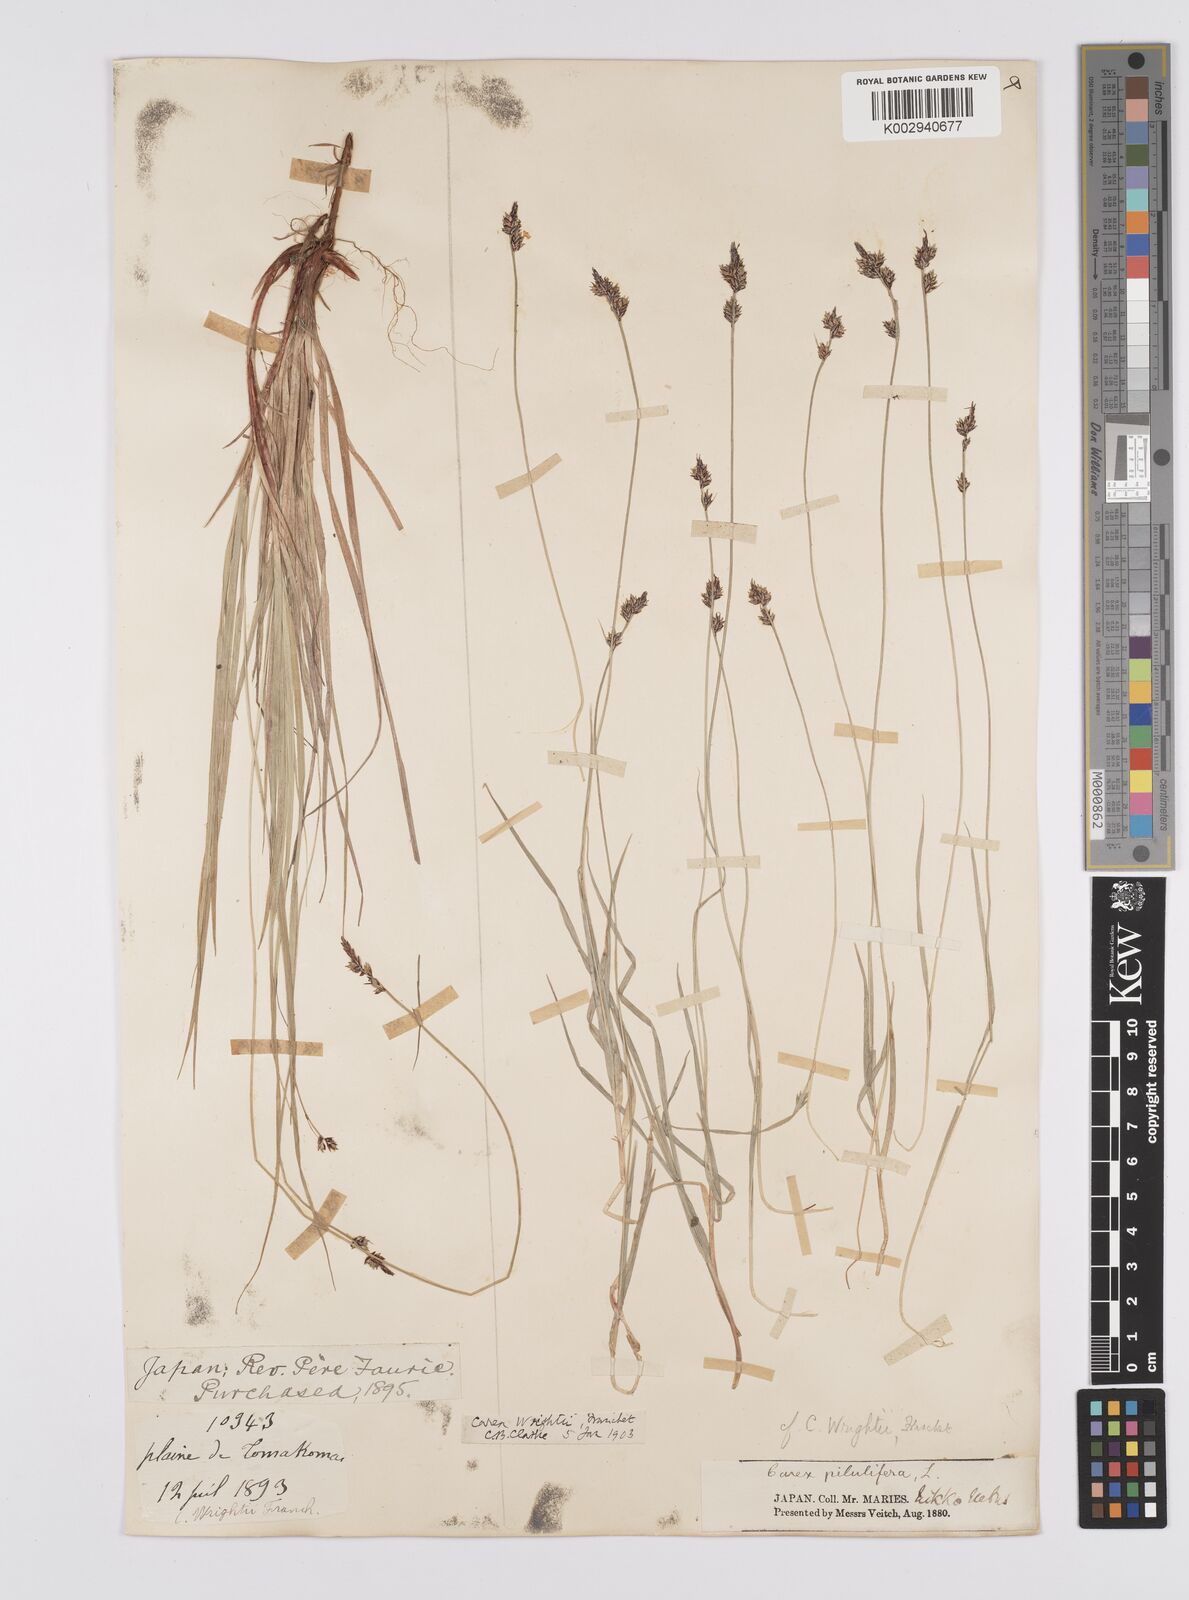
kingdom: Plantae
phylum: Tracheophyta
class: Liliopsida
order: Poales
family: Cyperaceae
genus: Carex
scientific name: Carex oxyandra
